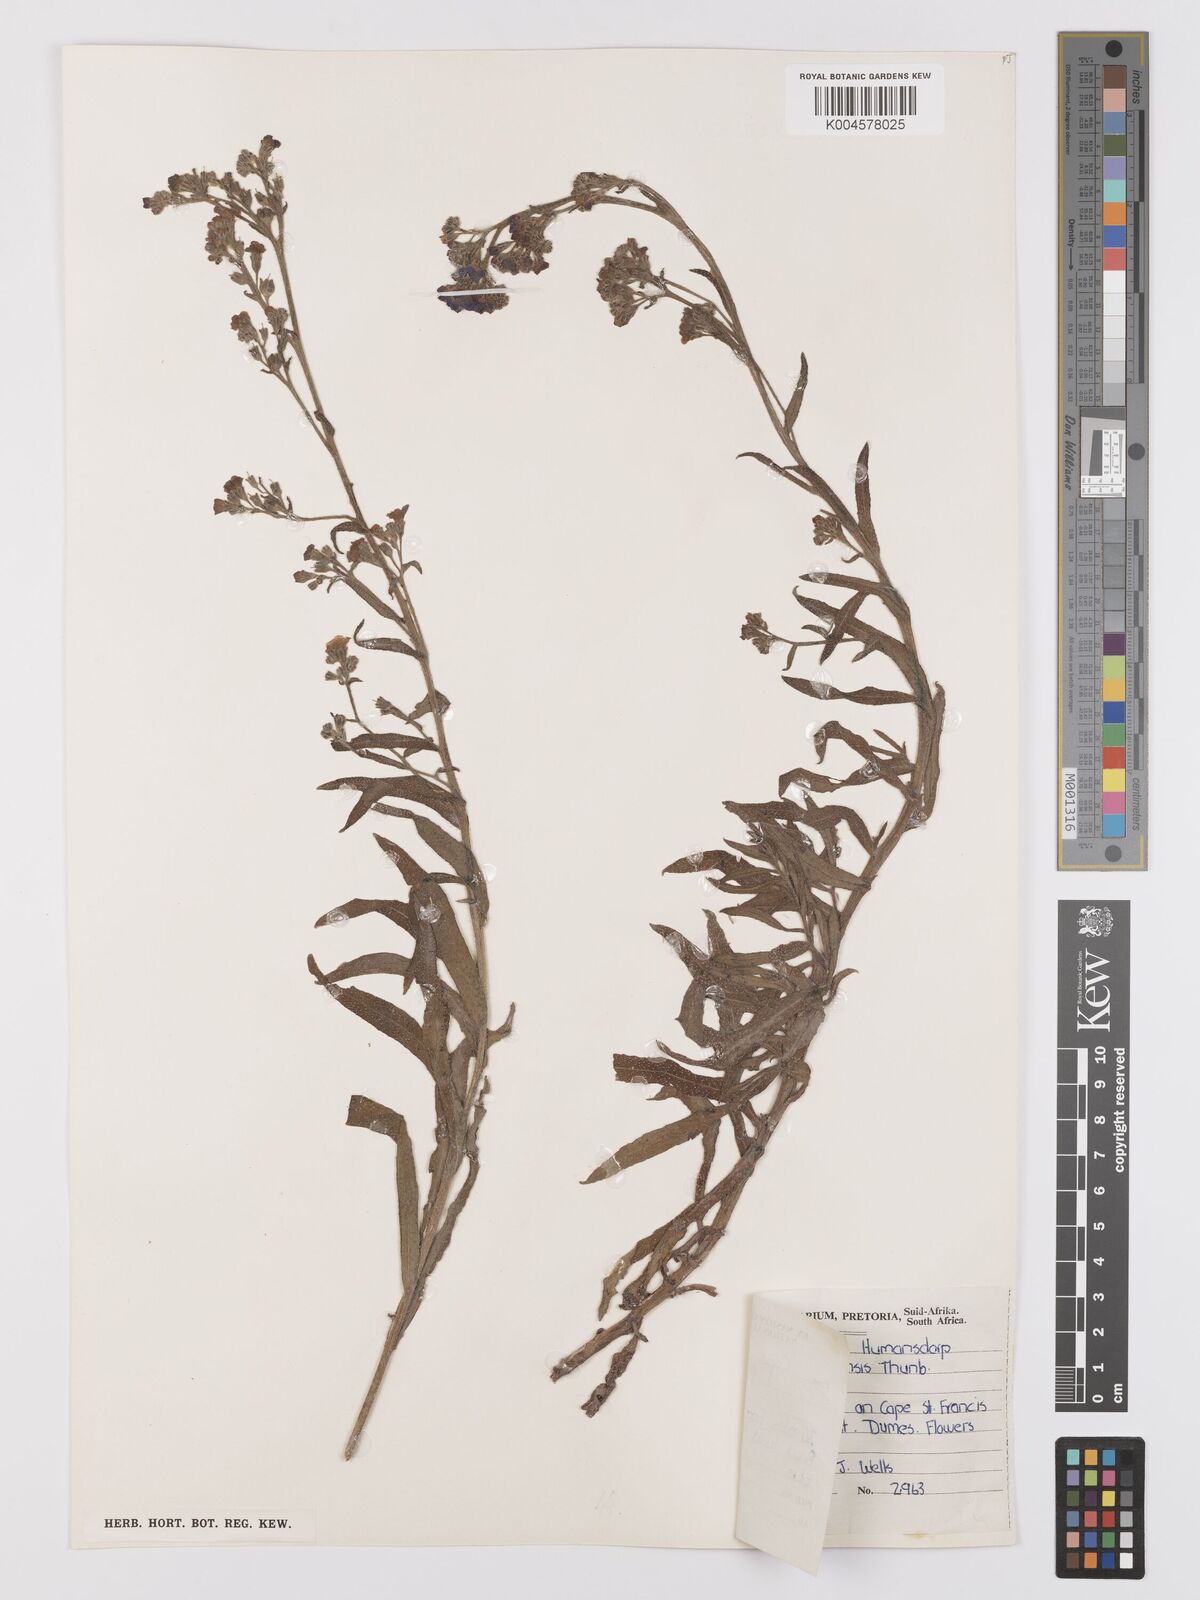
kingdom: Plantae
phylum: Tracheophyta
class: Magnoliopsida
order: Boraginales
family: Boraginaceae
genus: Anchusa
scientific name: Anchusa capensis
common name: Cape bugloss
